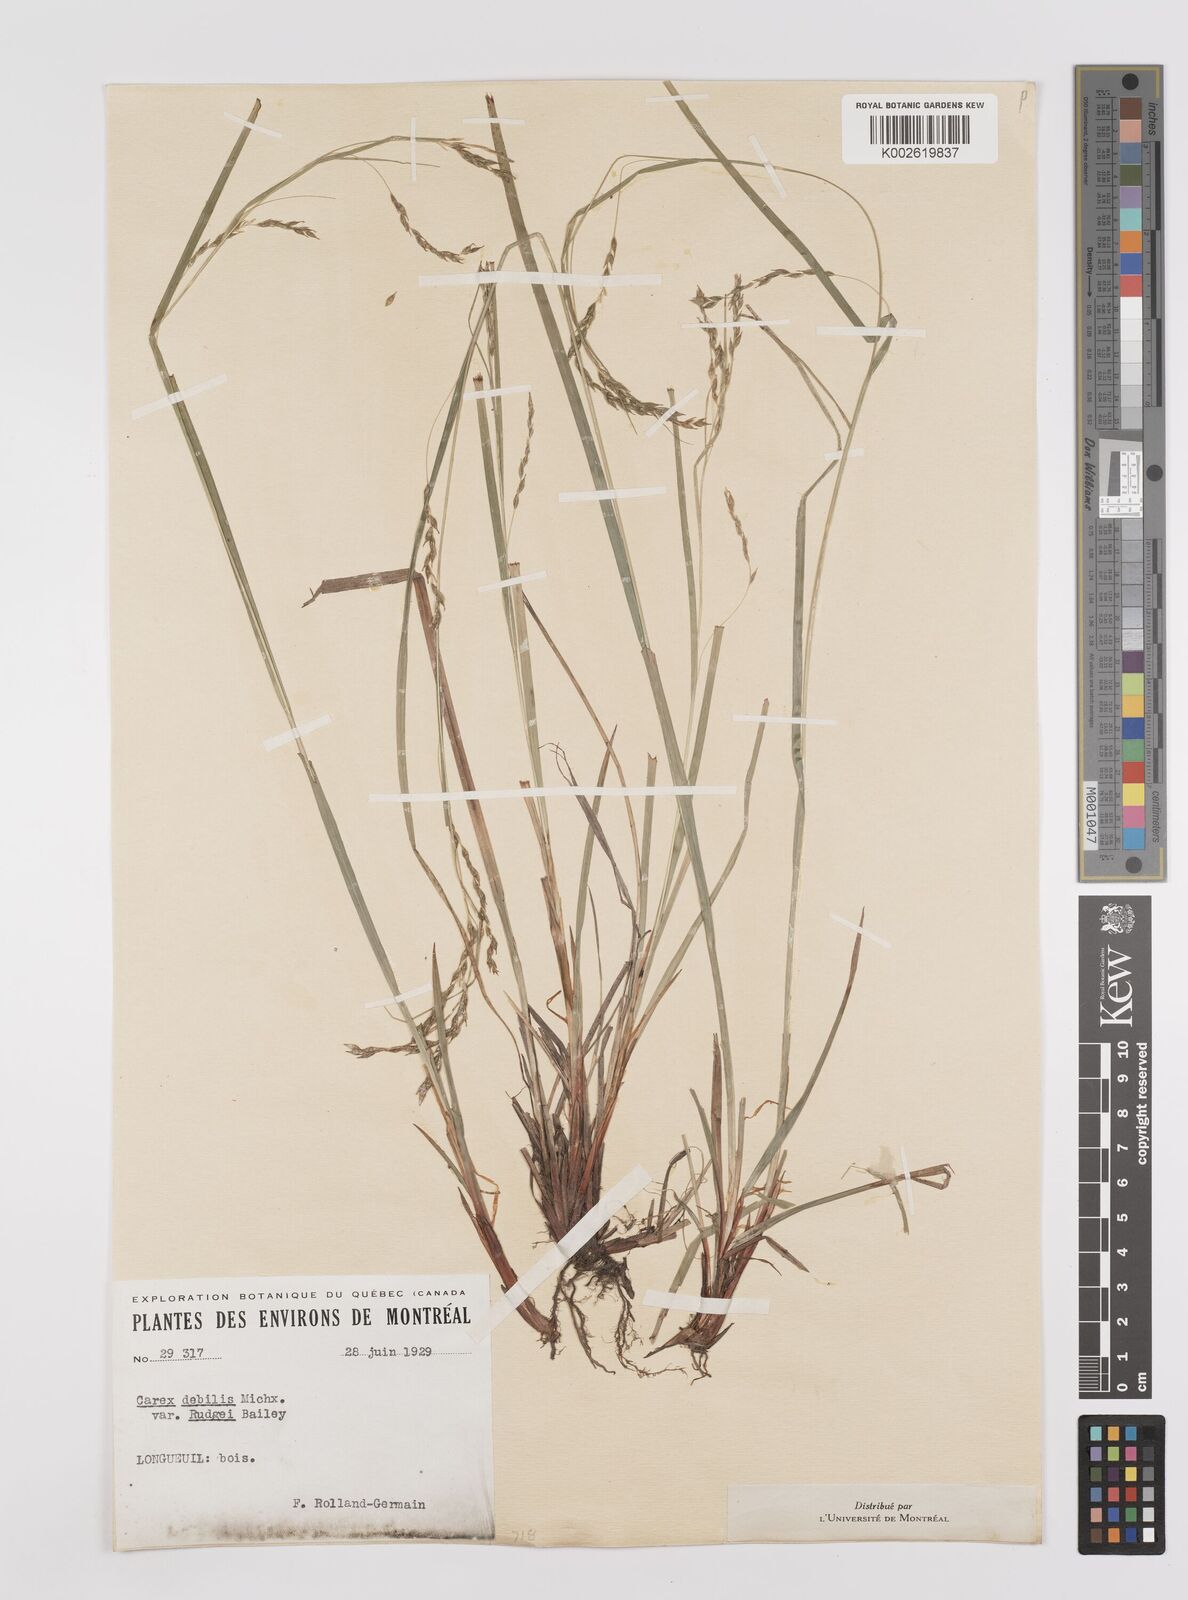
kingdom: Plantae
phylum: Tracheophyta
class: Liliopsida
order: Poales
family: Cyperaceae
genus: Carex
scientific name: Carex debilis
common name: White-edge sedge
